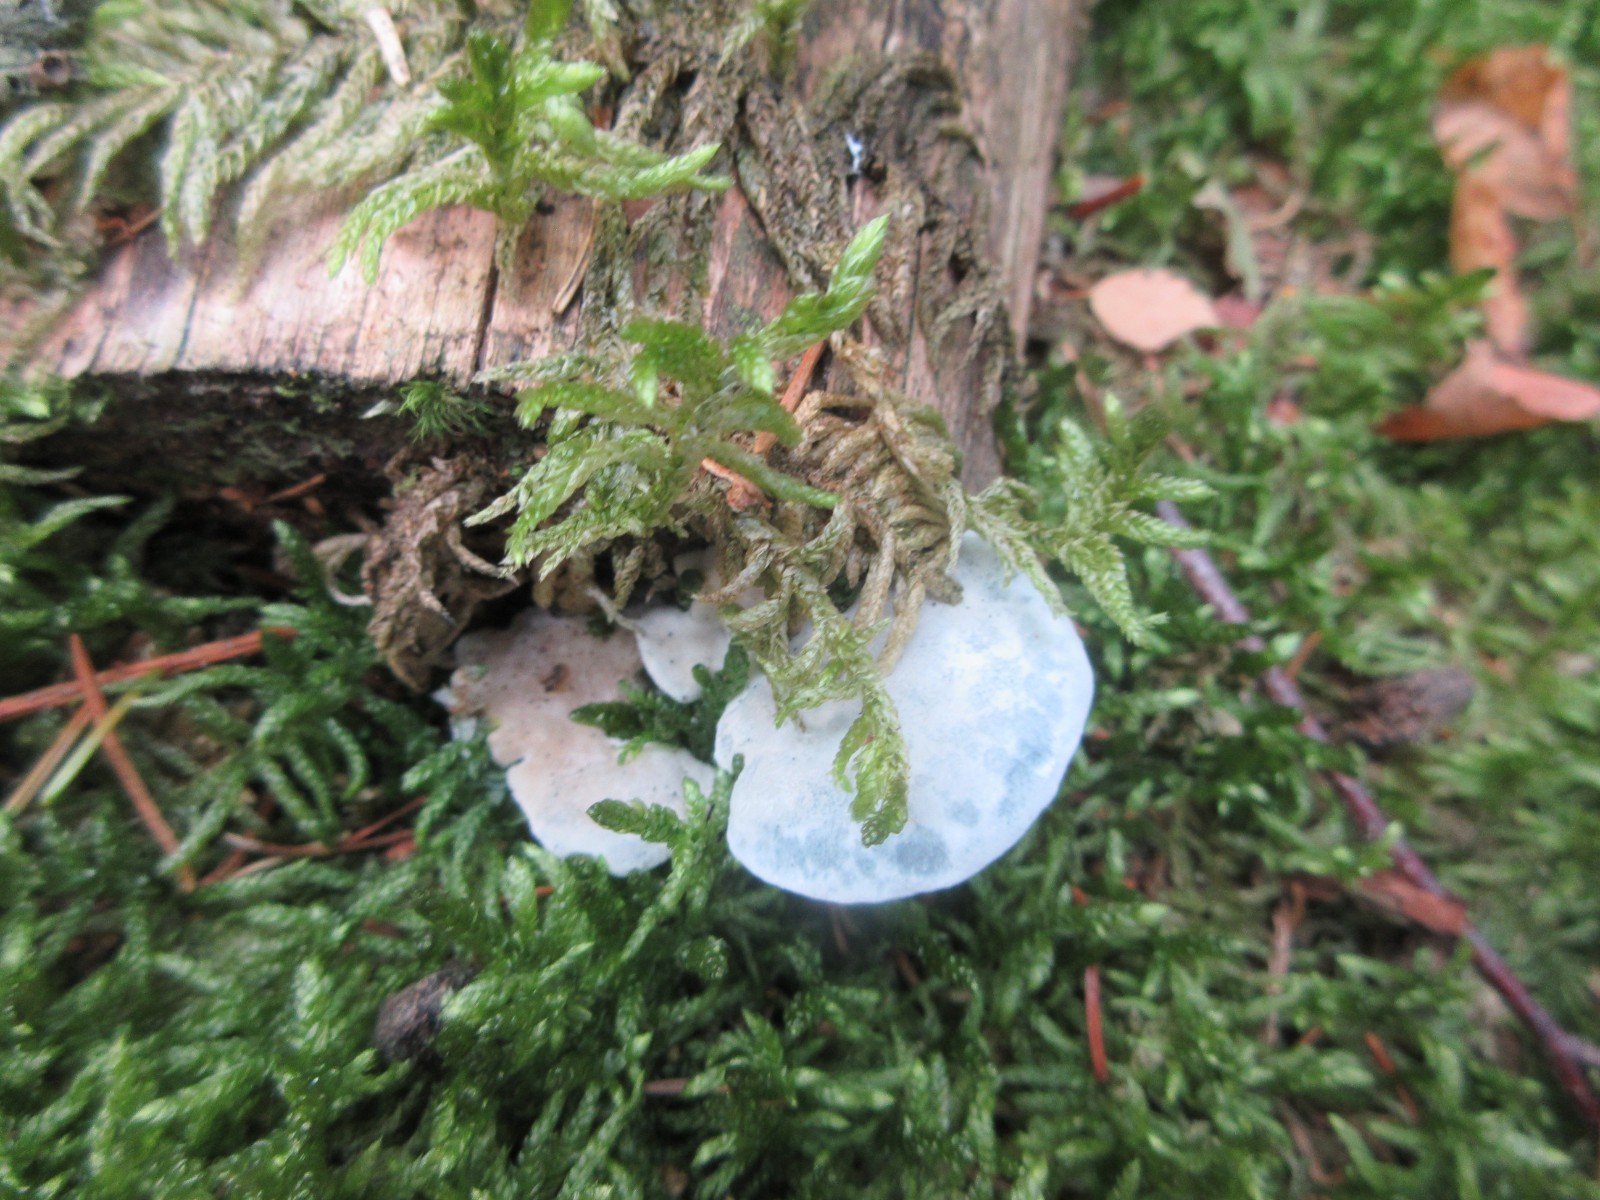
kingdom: Fungi
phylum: Basidiomycota
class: Agaricomycetes
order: Polyporales
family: Polyporaceae
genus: Cyanosporus
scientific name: Cyanosporus caesius
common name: blålig kødporesvamp
